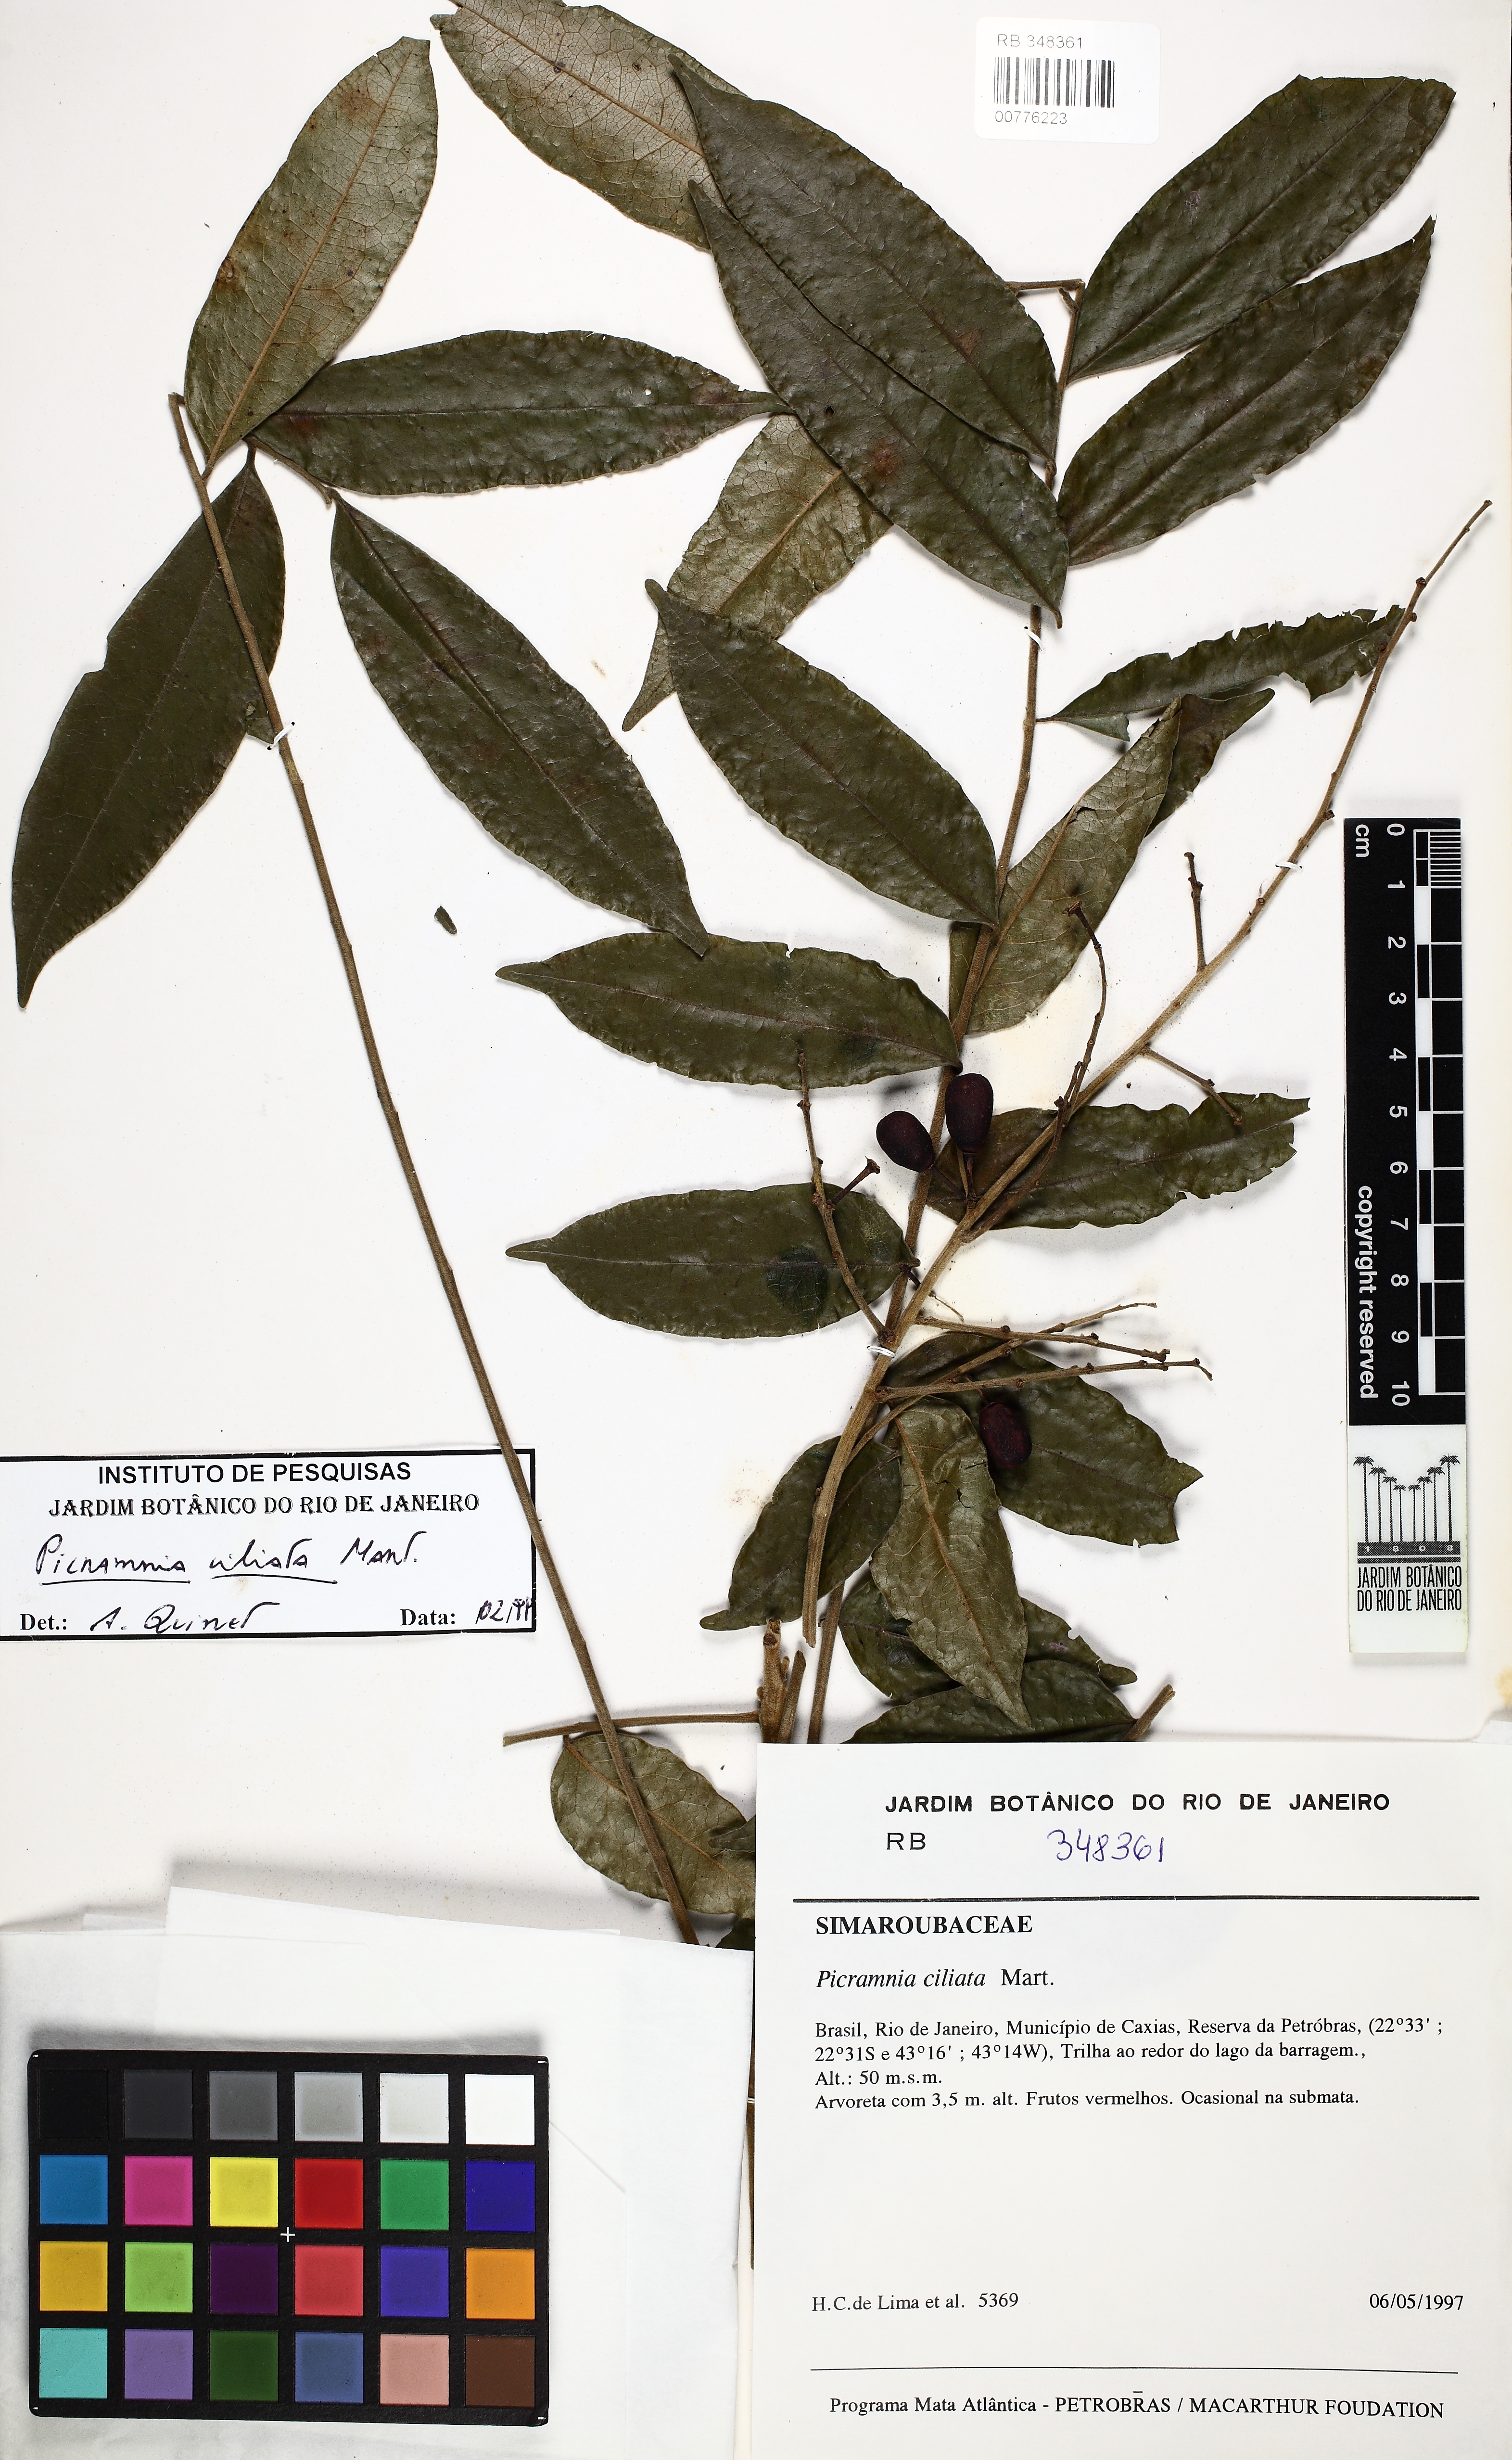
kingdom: Plantae
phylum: Tracheophyta
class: Magnoliopsida
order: Picramniales
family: Picramniaceae
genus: Picramnia
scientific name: Picramnia ciliata
